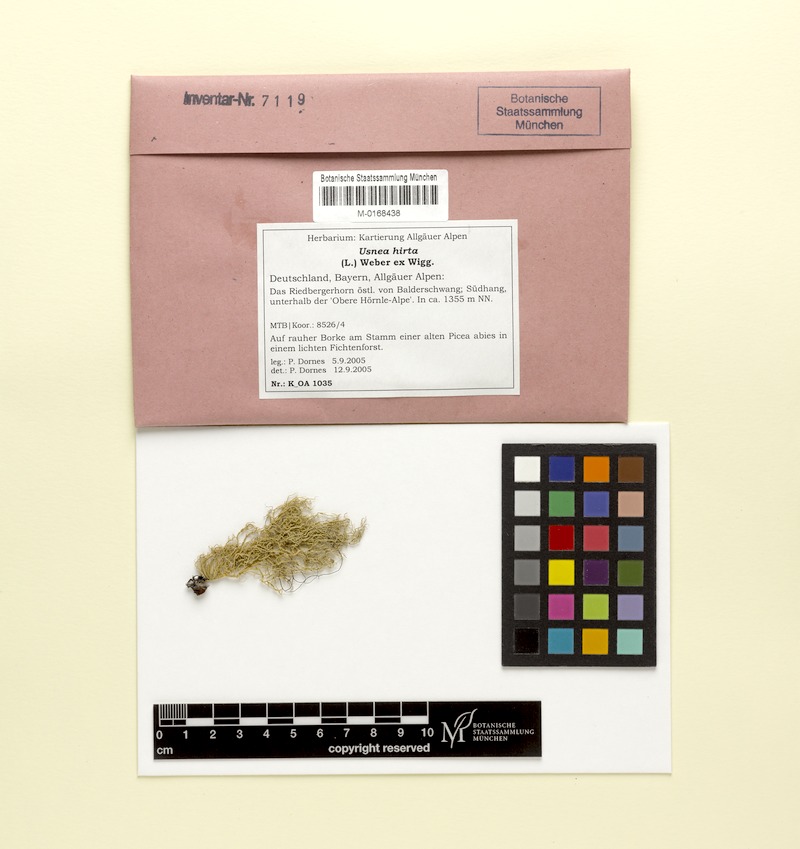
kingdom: Fungi
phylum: Ascomycota
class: Lecanoromycetes
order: Lecanorales
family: Parmeliaceae
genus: Usnea
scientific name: Usnea hirta
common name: Bristly beard lichen
